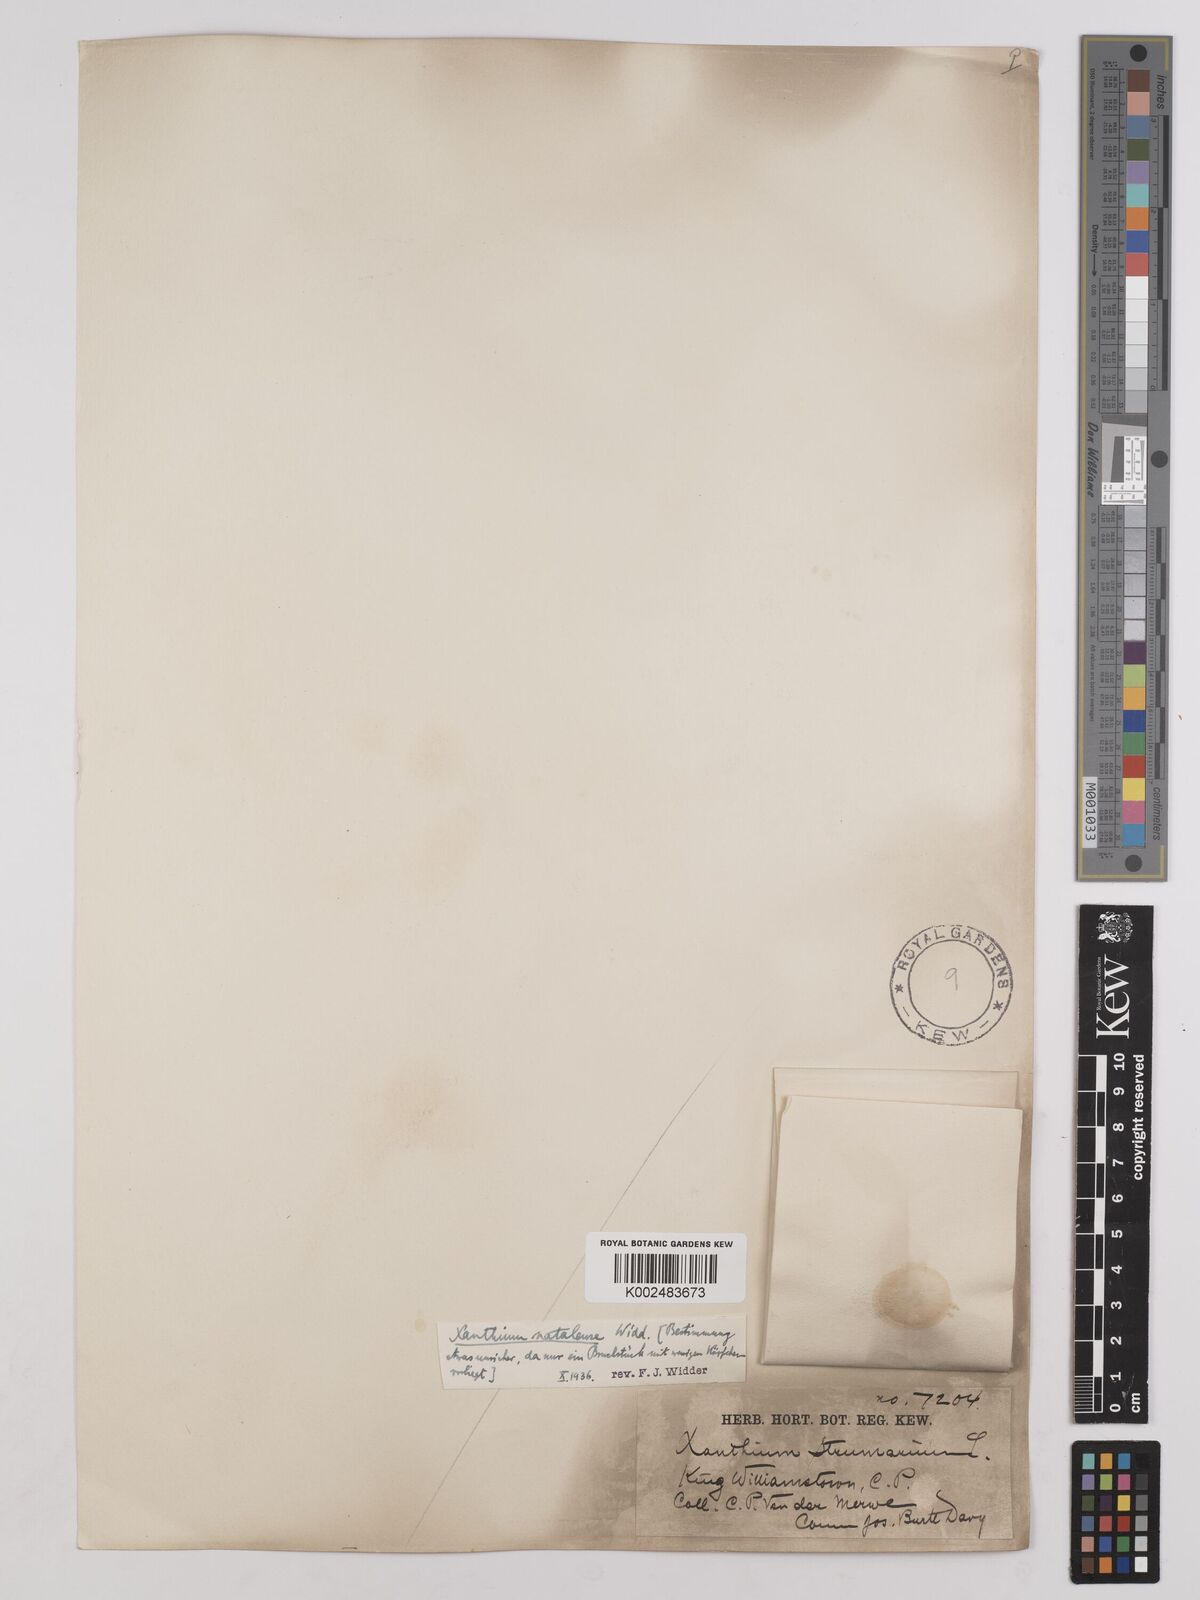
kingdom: Plantae
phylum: Tracheophyta
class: Magnoliopsida
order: Asterales
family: Asteraceae
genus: Xanthium
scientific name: Xanthium strumarium
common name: Rough cocklebur
